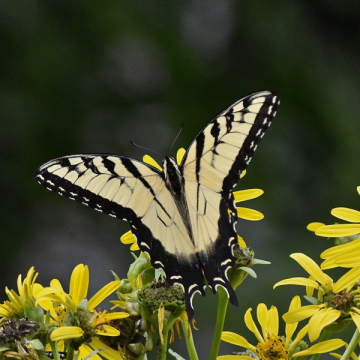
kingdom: Animalia
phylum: Arthropoda
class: Insecta
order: Lepidoptera
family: Papilionidae
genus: Pterourus
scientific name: Pterourus glaucus
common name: Eastern Tiger Swallowtail
